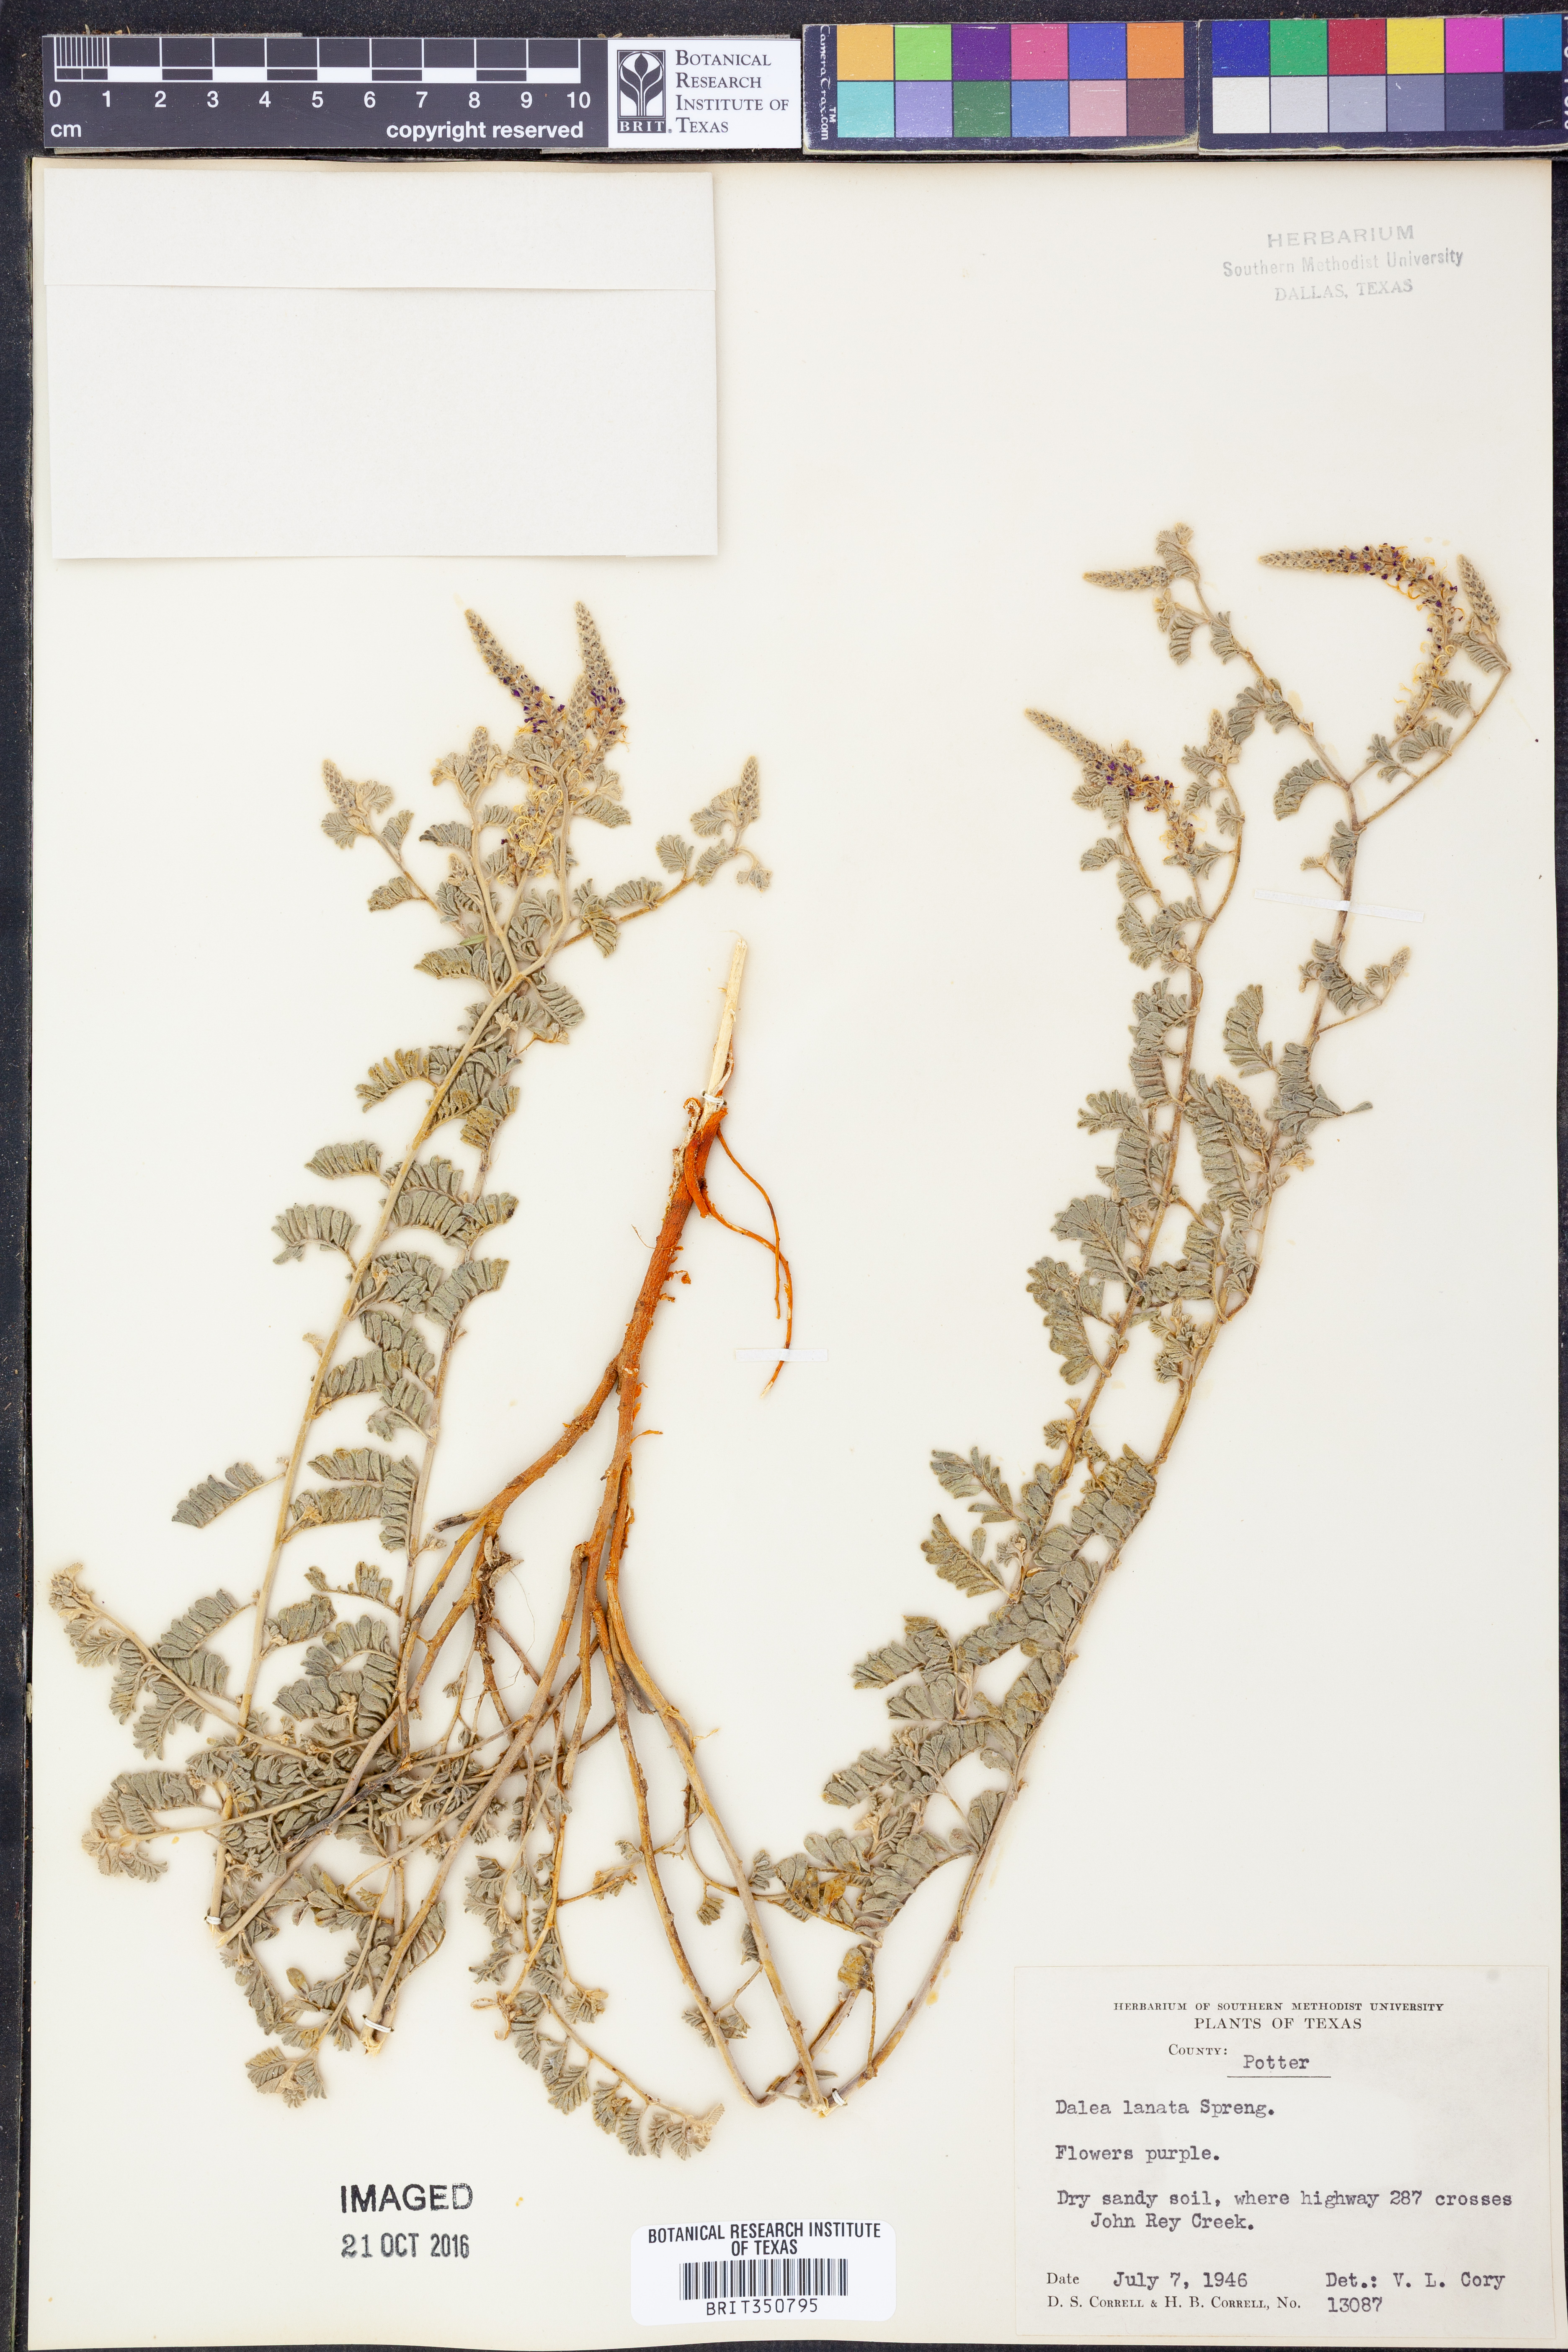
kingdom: Plantae
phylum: Tracheophyta
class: Magnoliopsida
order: Fabales
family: Fabaceae
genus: Dalea
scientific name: Dalea lanata
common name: Woolly dalea
